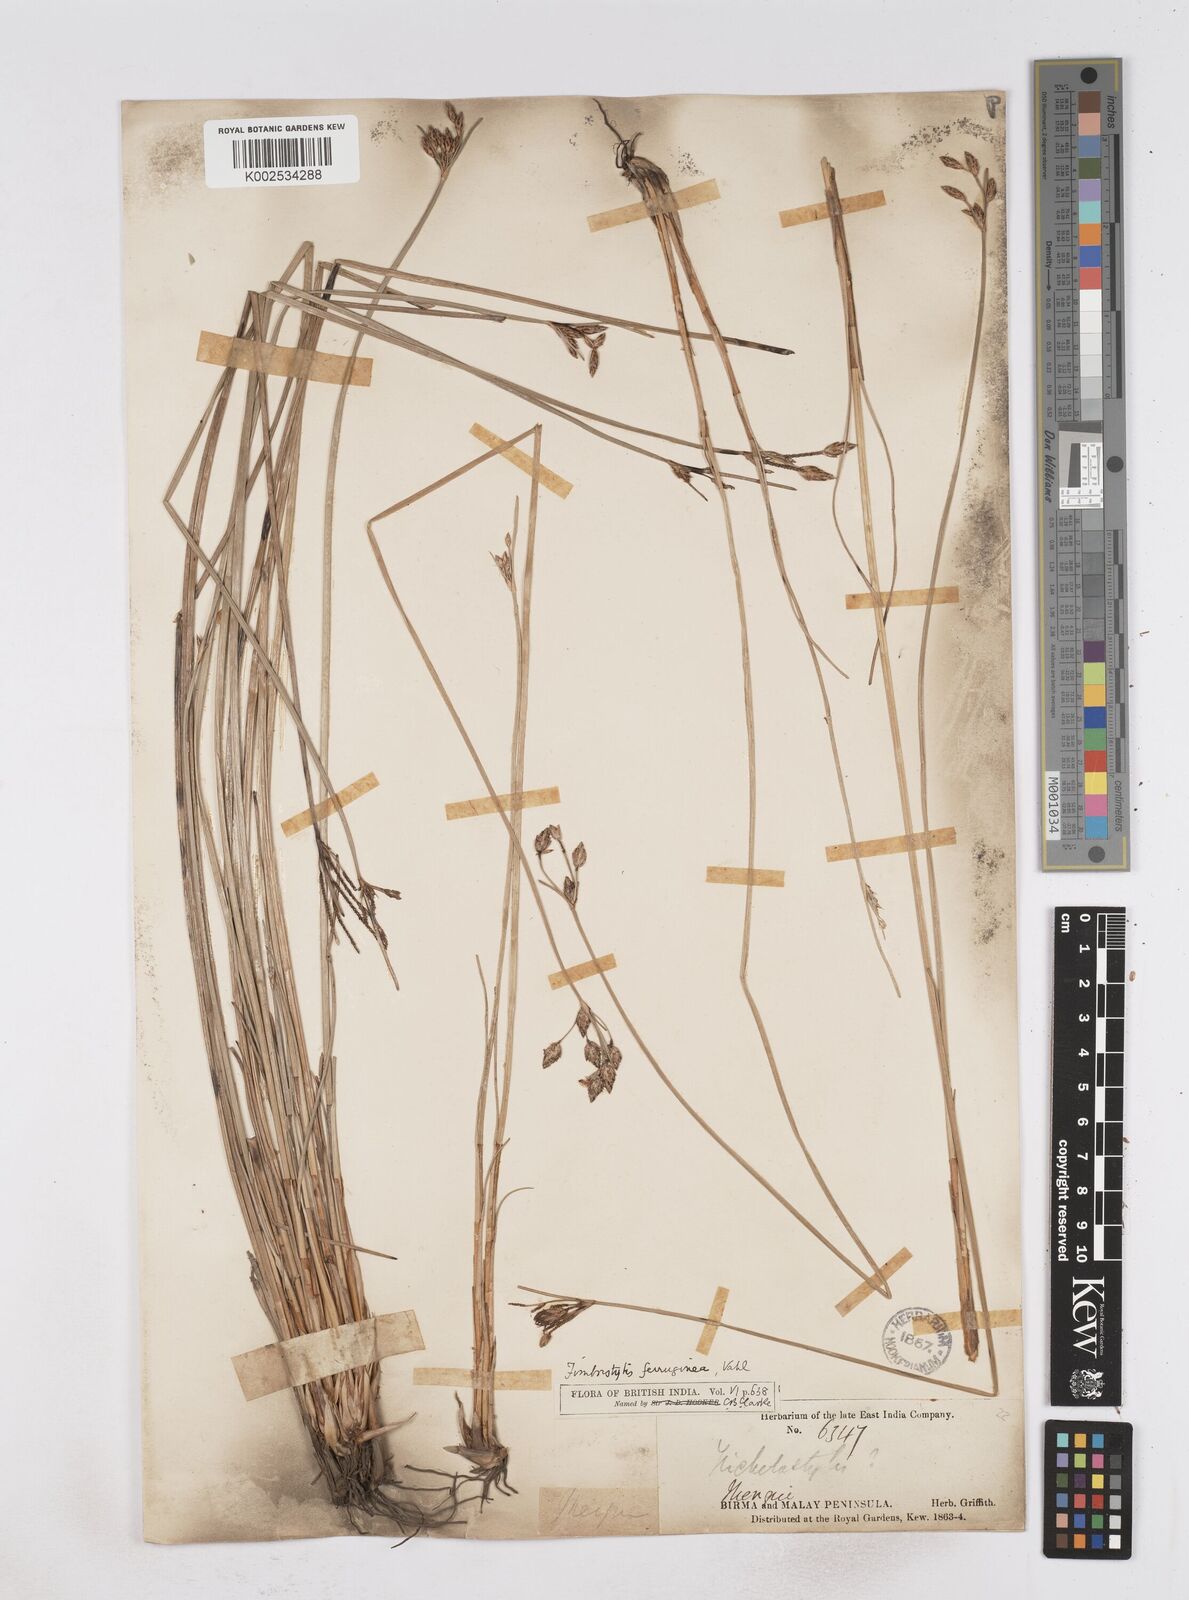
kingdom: Plantae
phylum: Tracheophyta
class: Liliopsida
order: Poales
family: Cyperaceae
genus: Fimbristylis
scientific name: Fimbristylis ferruginea
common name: West indian fimbry
